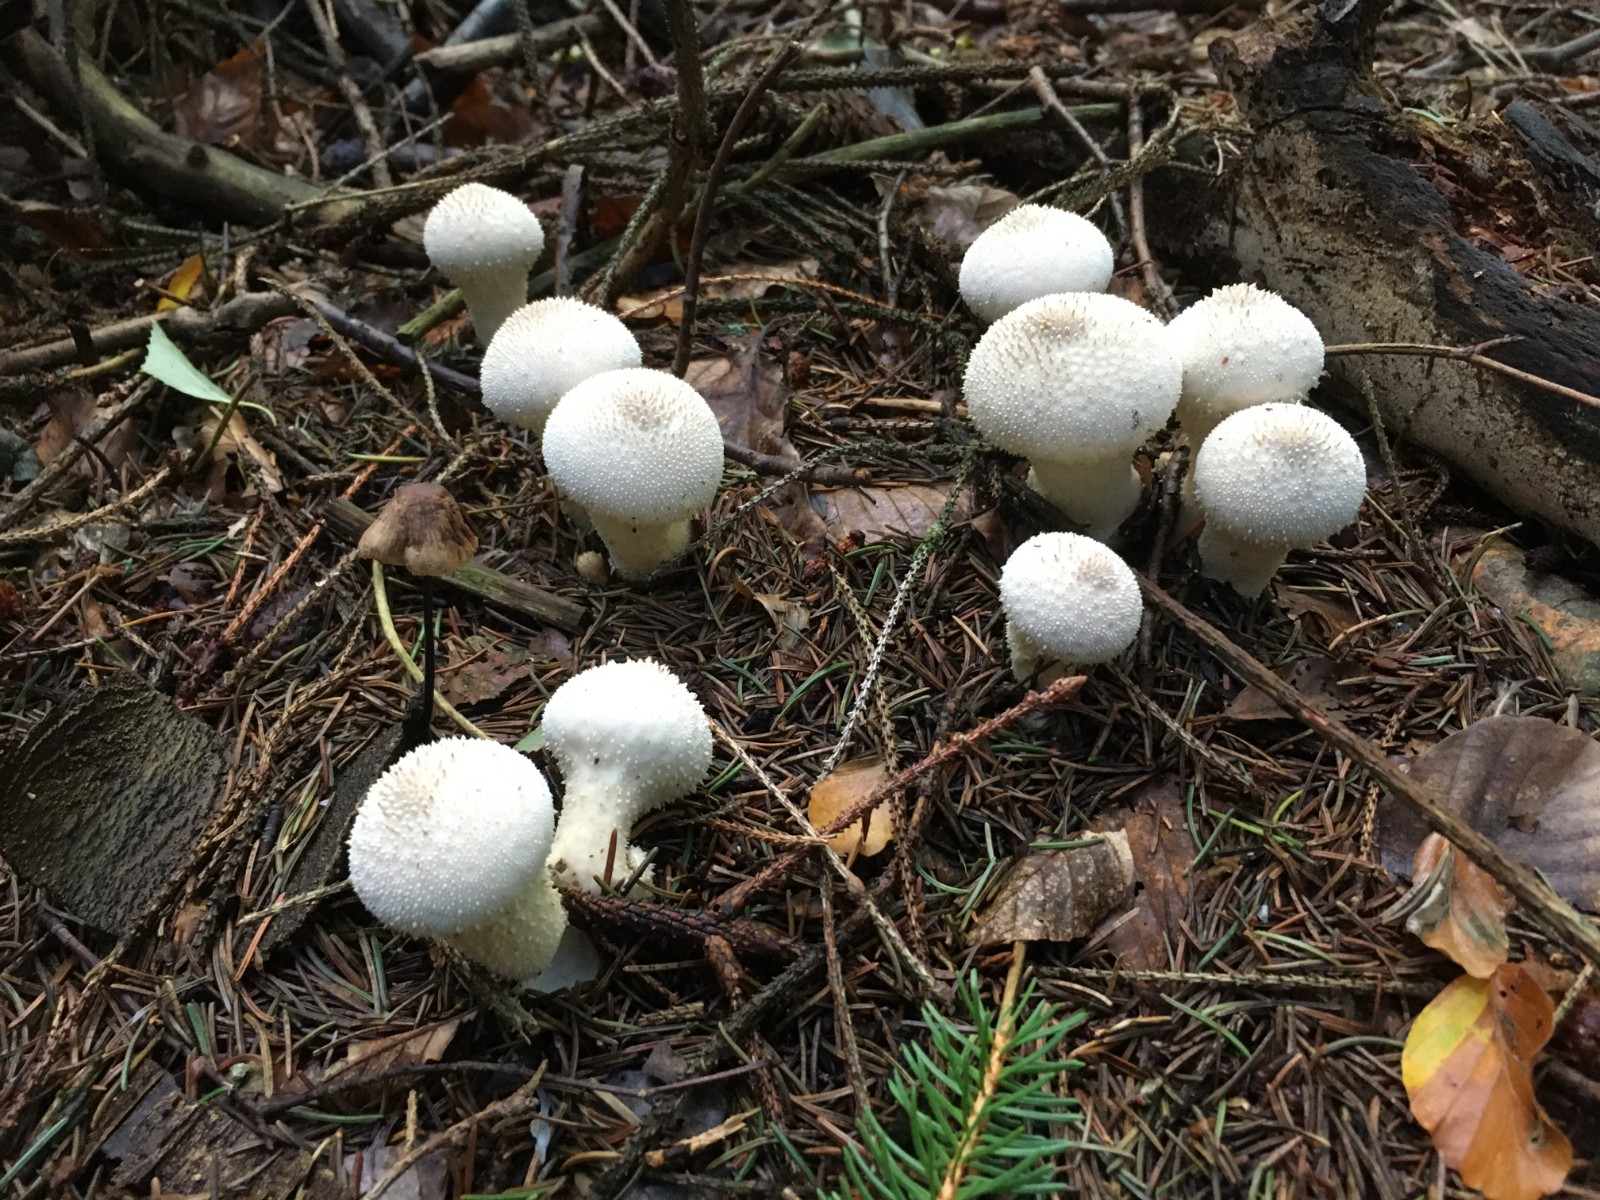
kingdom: Fungi
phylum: Basidiomycota
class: Agaricomycetes
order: Agaricales
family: Lycoperdaceae
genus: Lycoperdon
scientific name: Lycoperdon perlatum
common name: krystal-støvbold
